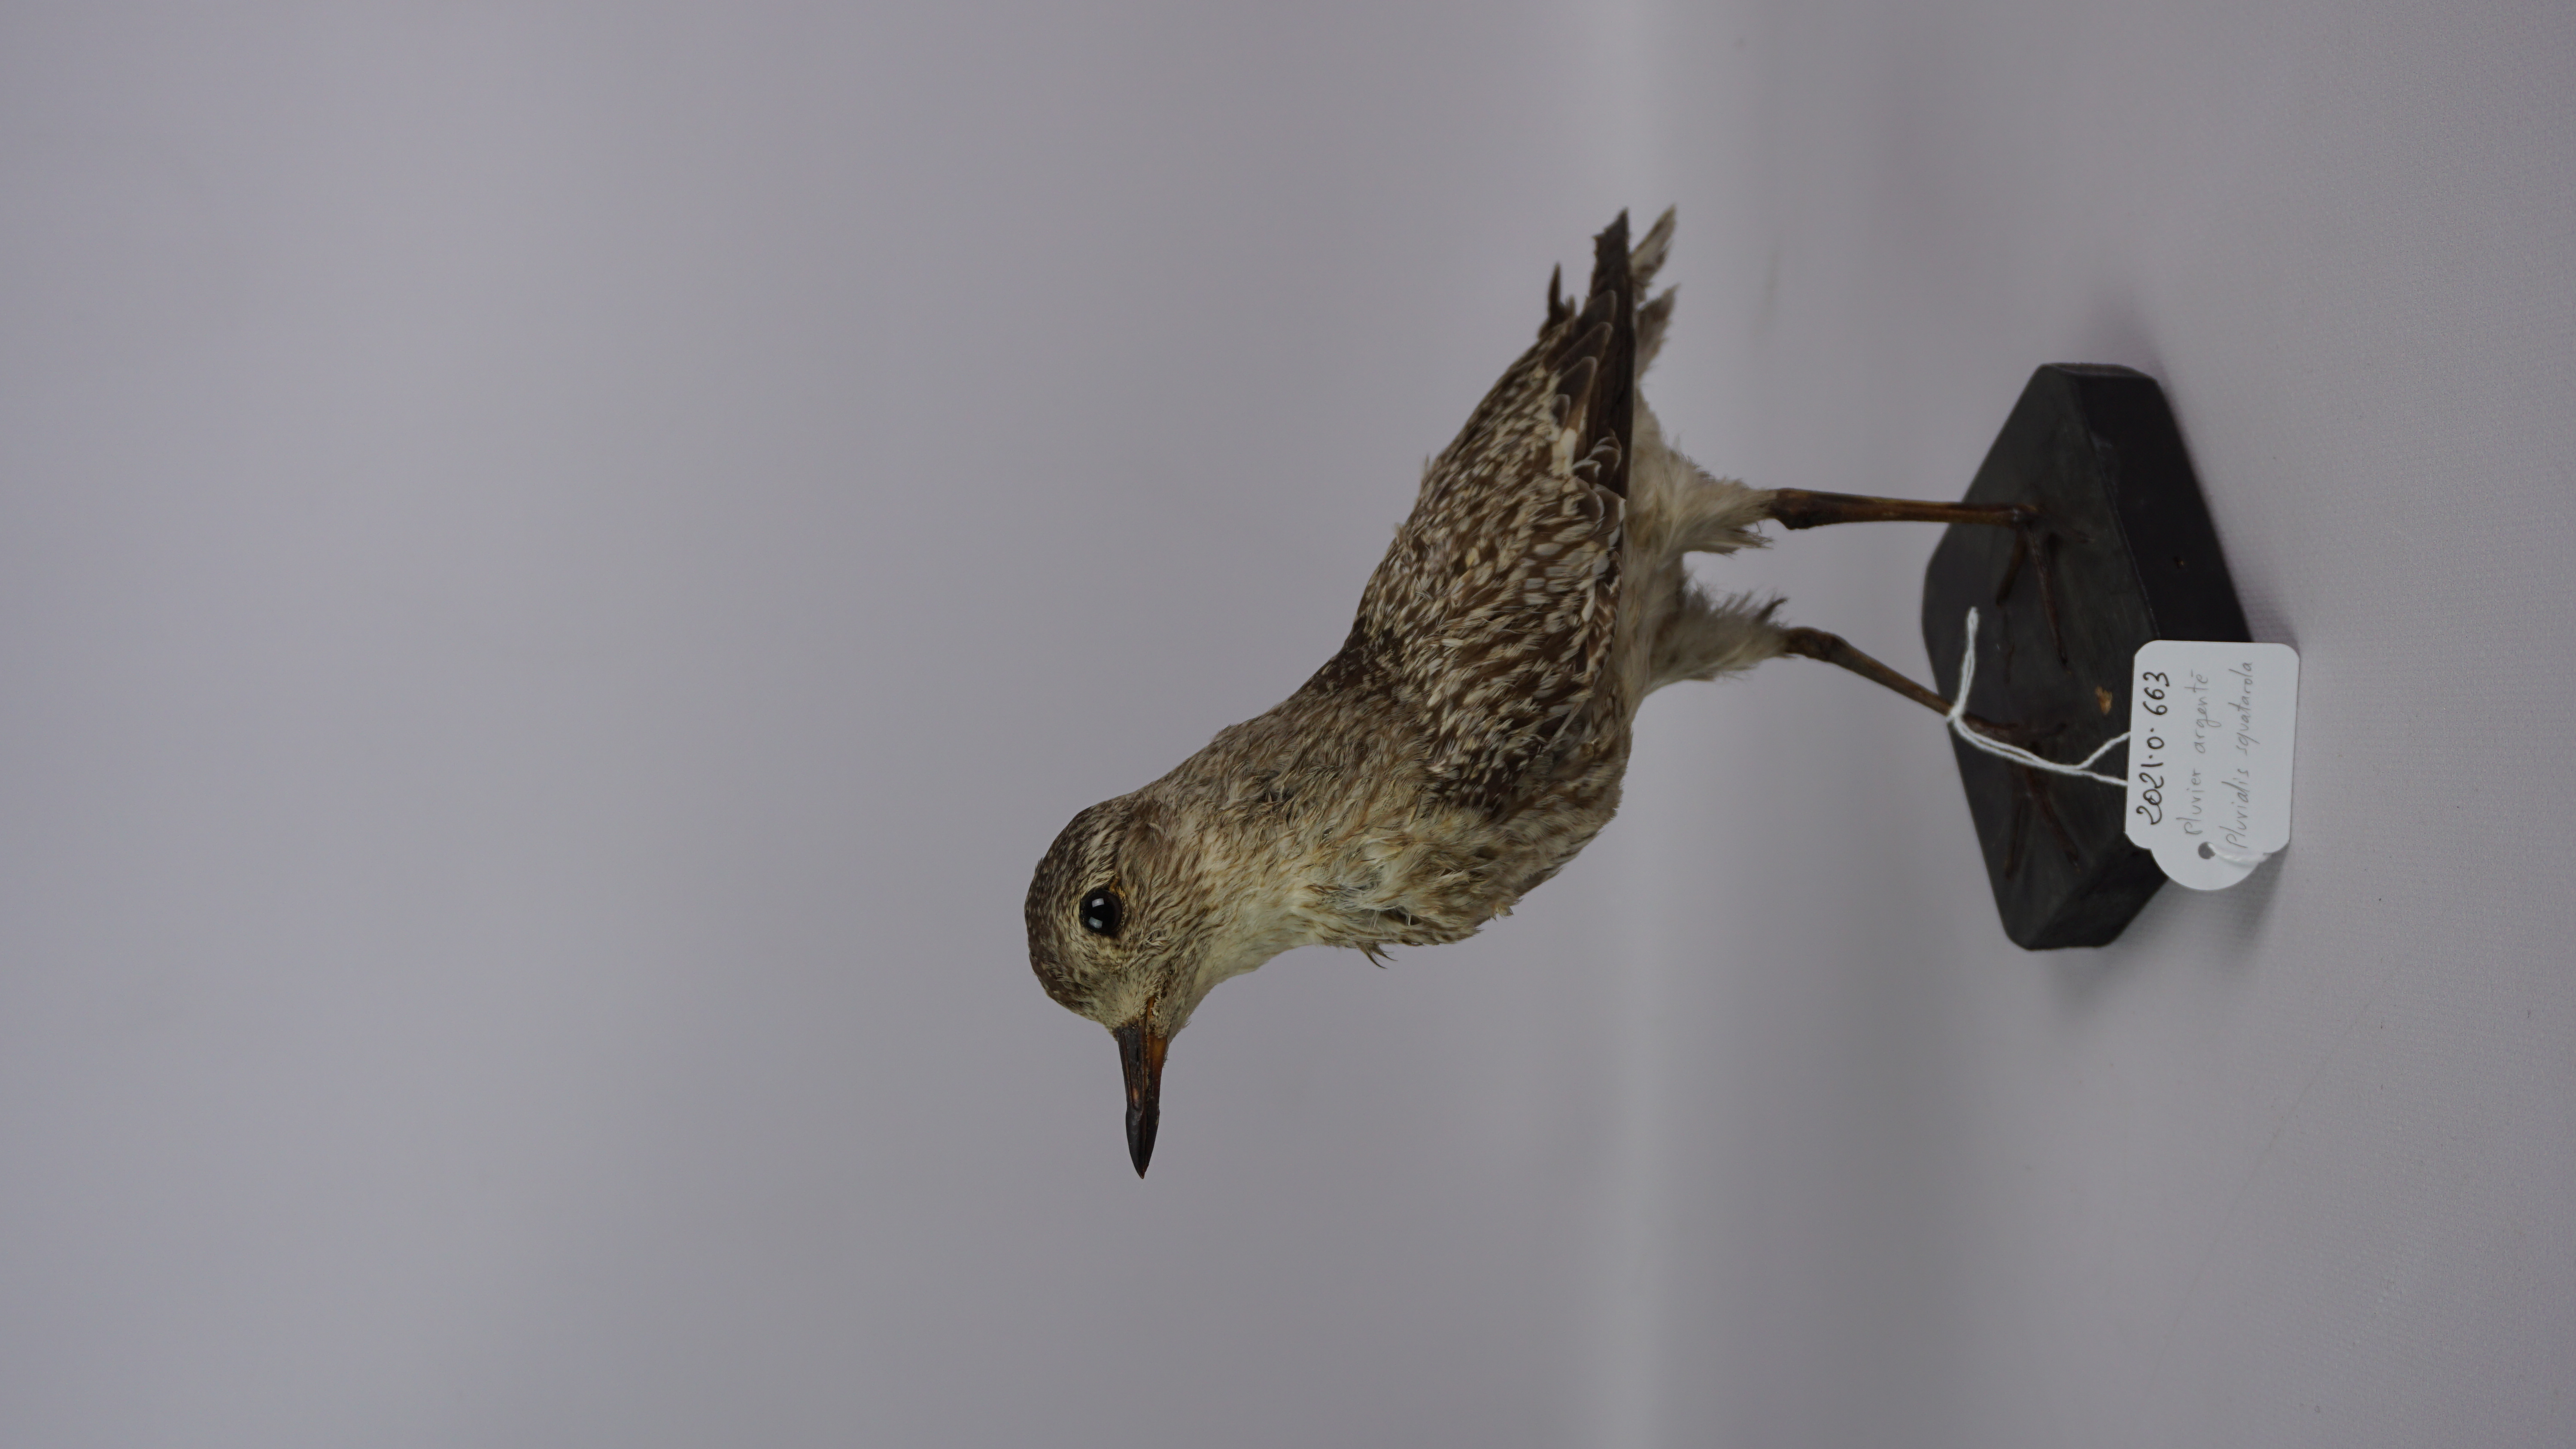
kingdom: Animalia
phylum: Chordata
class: Aves
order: Charadriiformes
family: Charadriidae
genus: Pluvialis
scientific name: Pluvialis squatarola
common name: Grey plover
